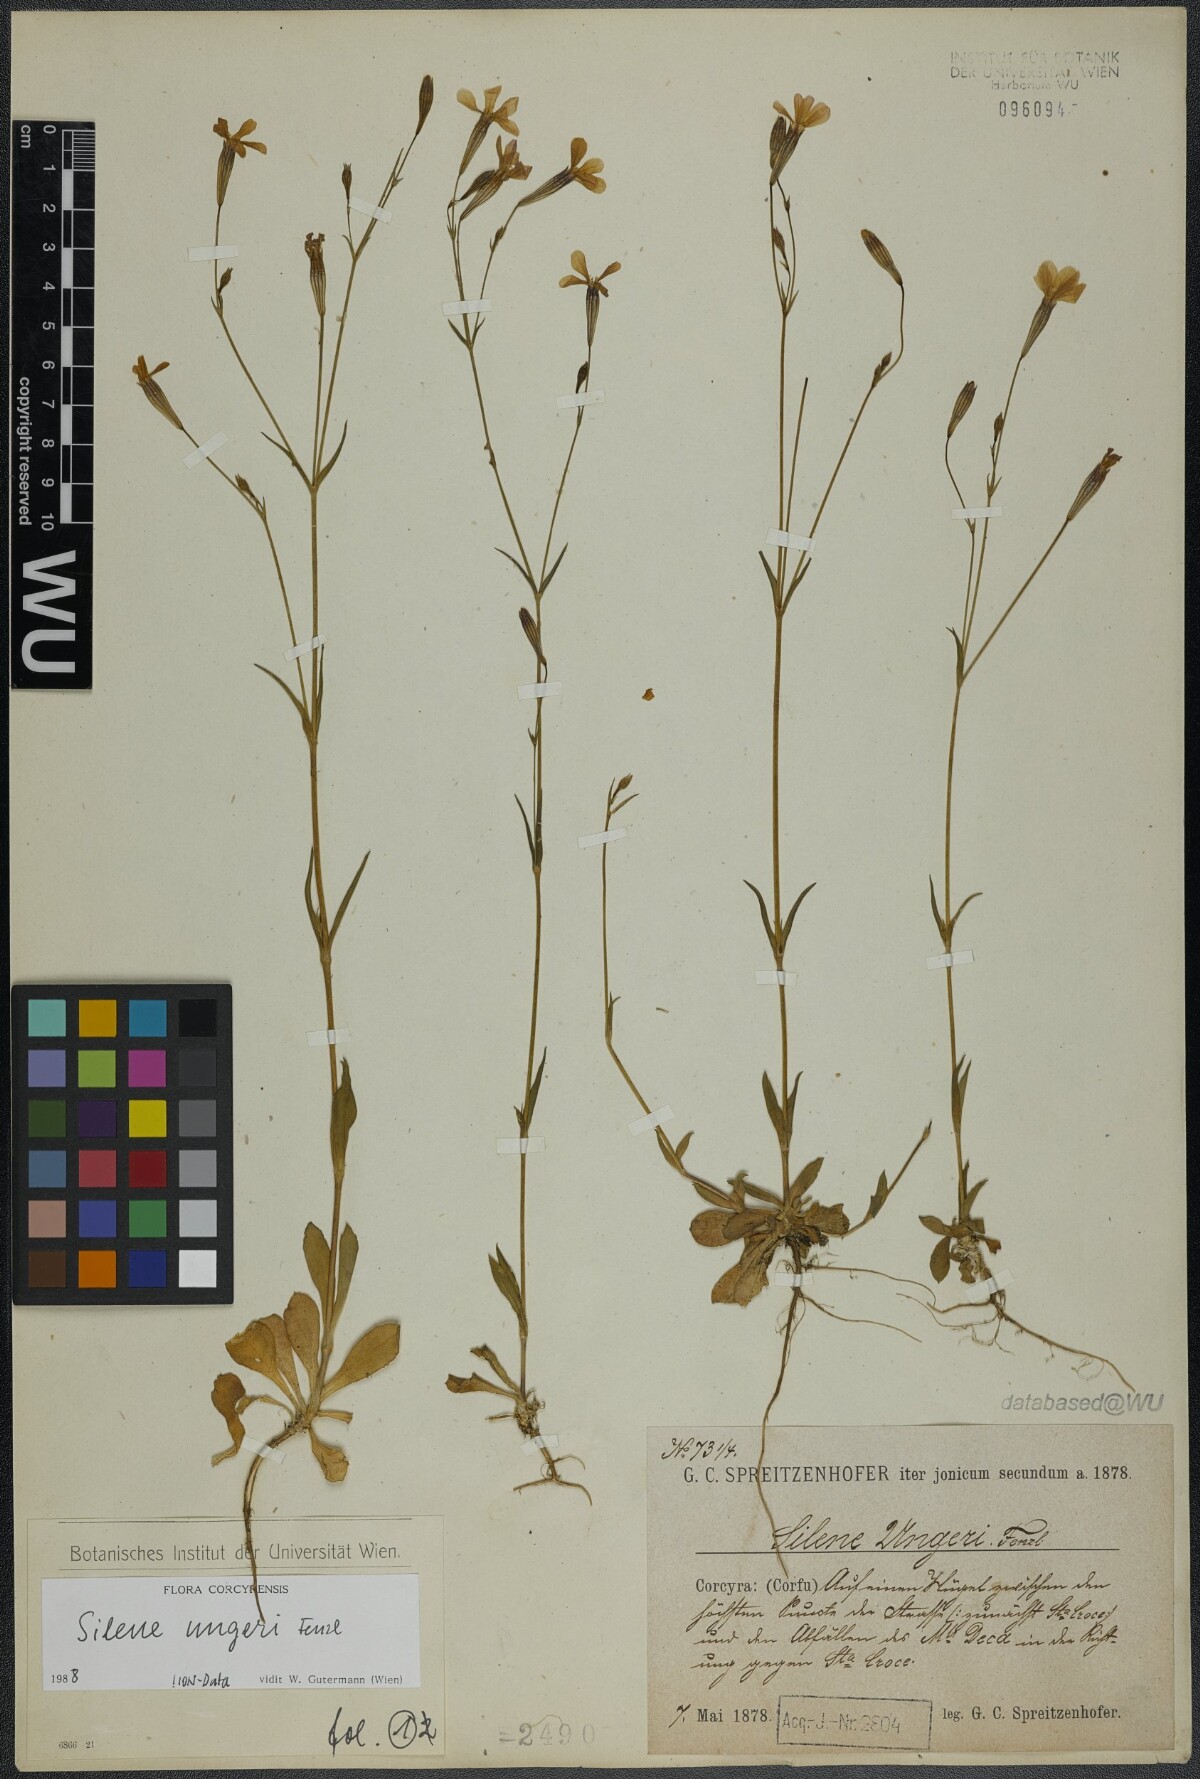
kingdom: Plantae
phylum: Tracheophyta
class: Magnoliopsida
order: Caryophyllales
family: Caryophyllaceae
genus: Silene
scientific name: Silene ungeri
